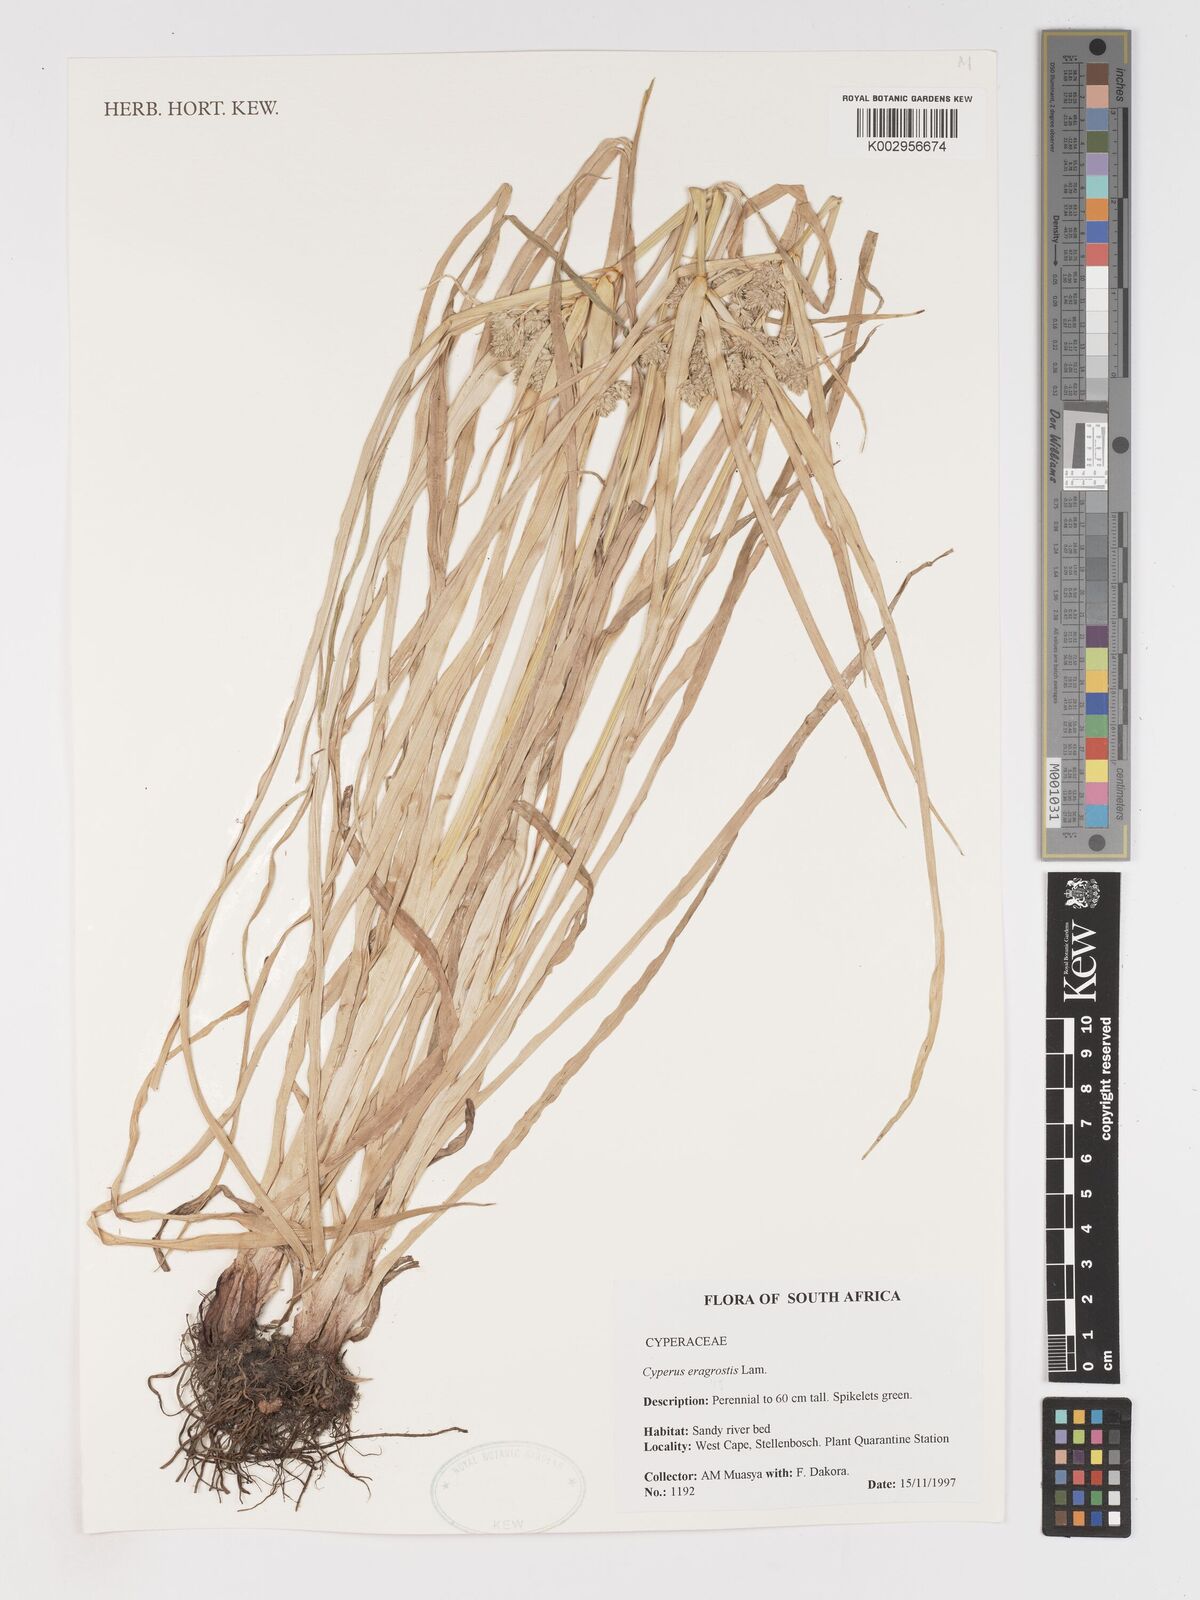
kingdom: Plantae
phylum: Tracheophyta
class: Liliopsida
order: Poales
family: Cyperaceae
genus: Cyperus
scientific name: Cyperus eragrostis
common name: Tall flatsedge
